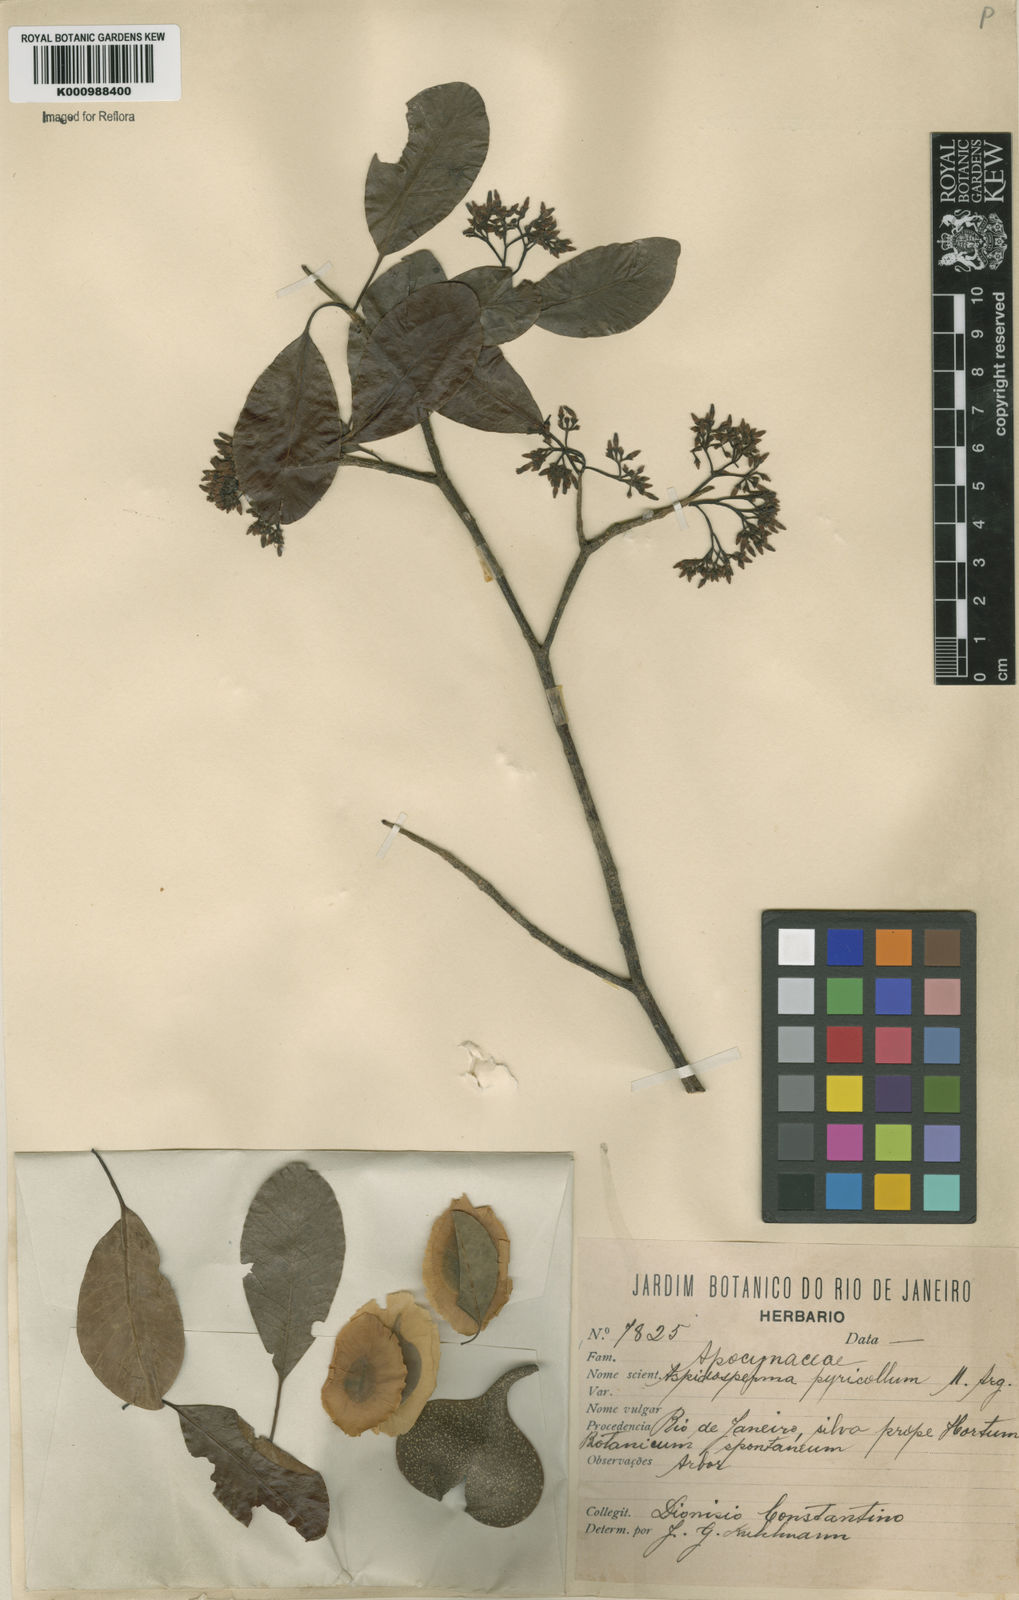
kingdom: Plantae
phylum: Tracheophyta
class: Magnoliopsida
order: Gentianales
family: Apocynaceae
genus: Aspidosperma
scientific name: Aspidosperma
